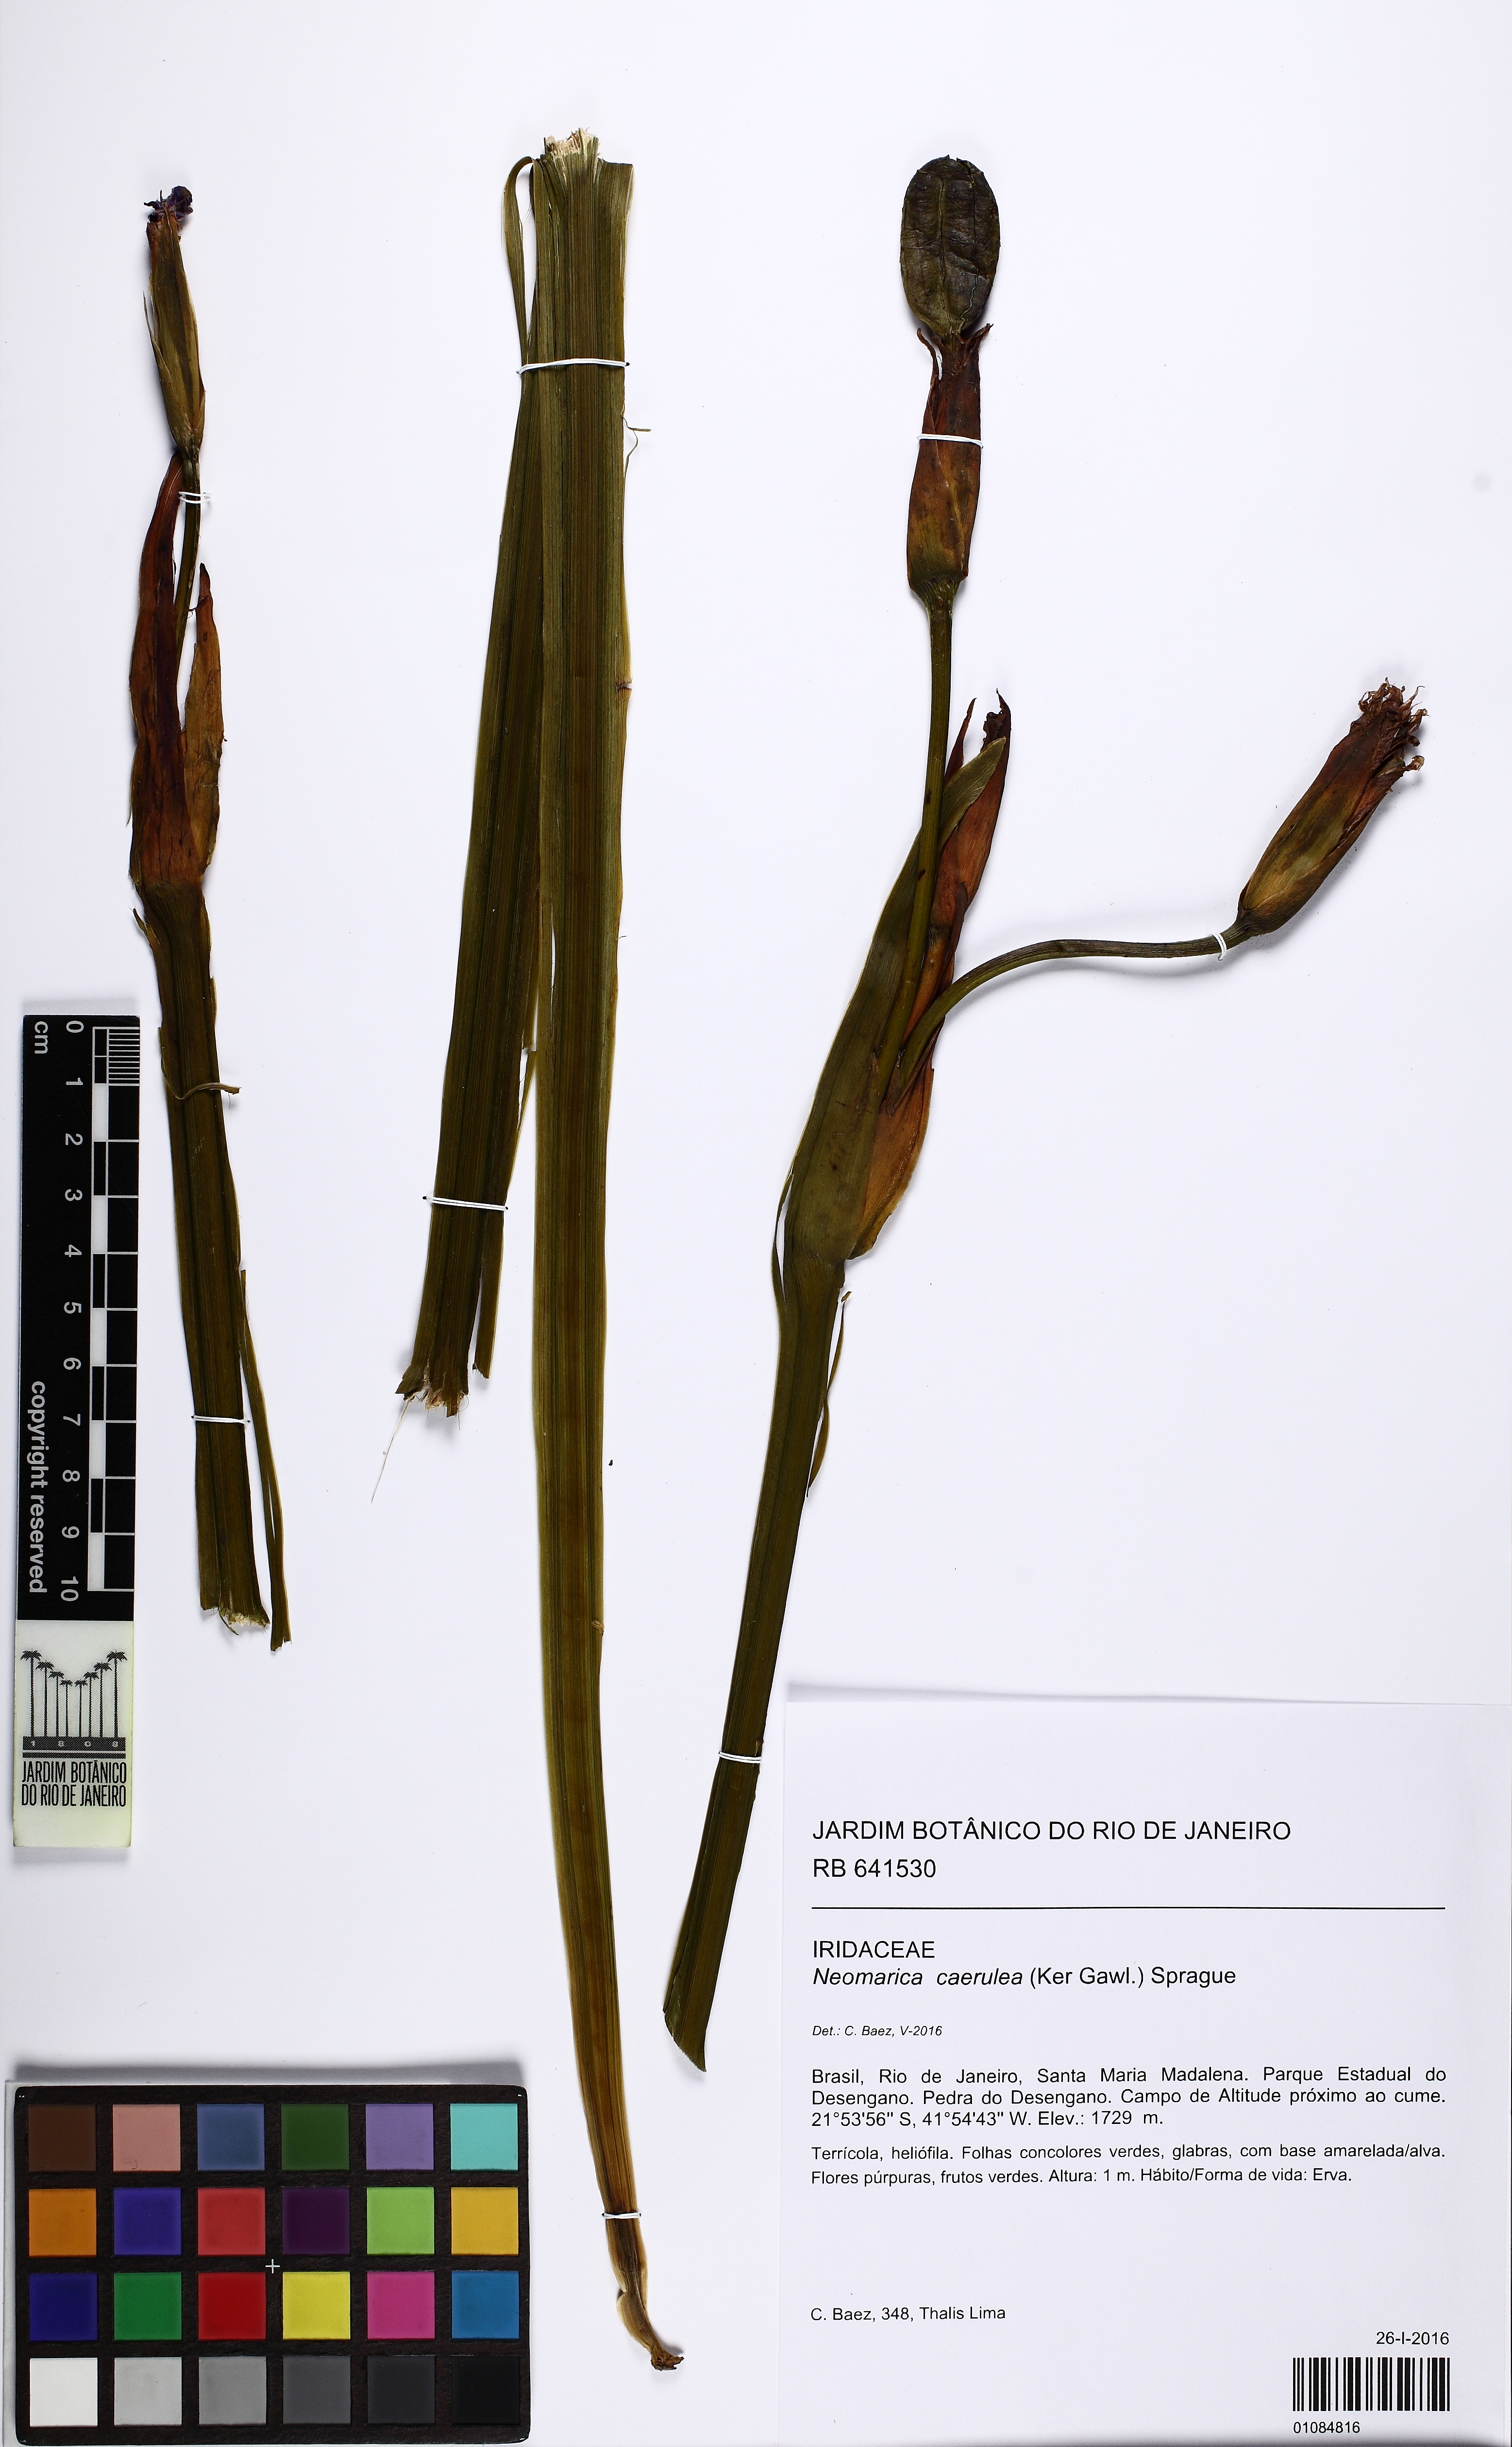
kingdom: Plantae
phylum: Tracheophyta
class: Liliopsida
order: Asparagales
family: Iridaceae
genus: Trimezia
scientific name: Trimezia coerulea
